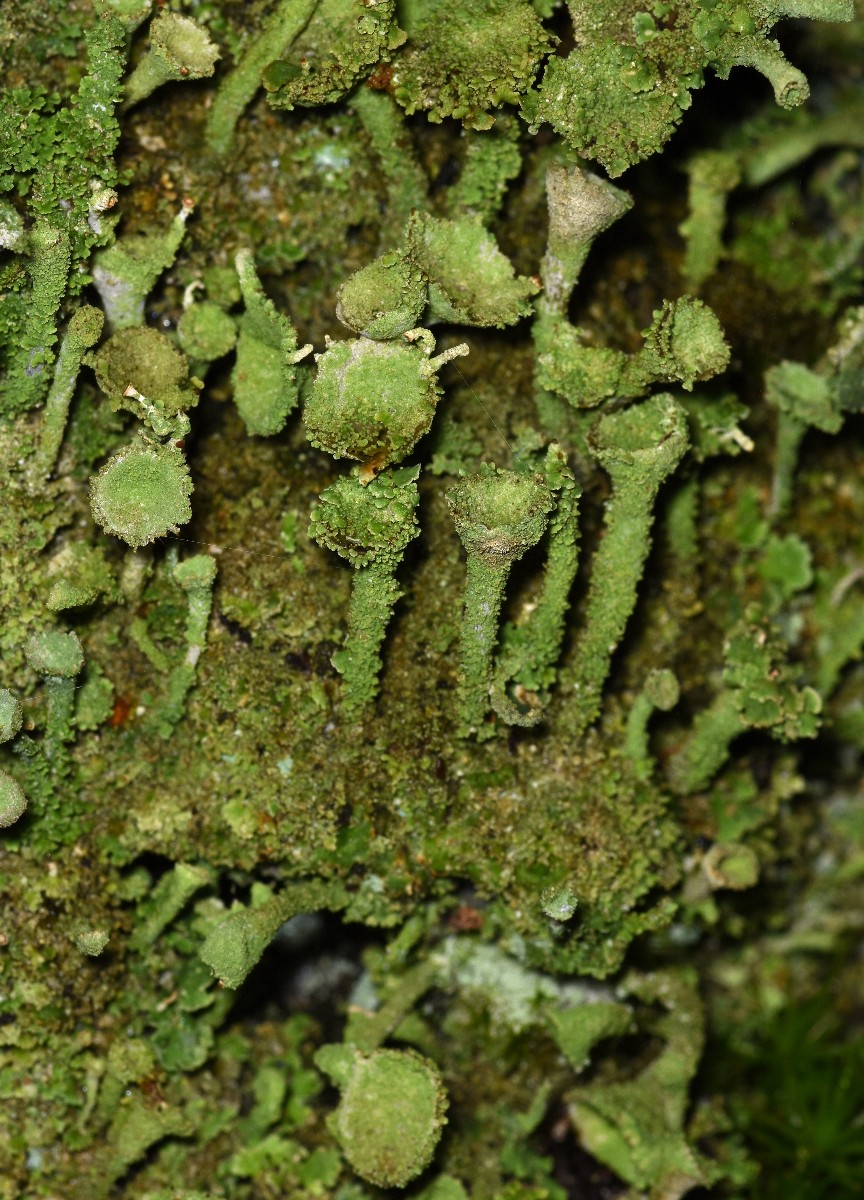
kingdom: Fungi
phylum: Ascomycota
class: Lecanoromycetes
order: Lecanorales
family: Cladoniaceae
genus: Cladonia
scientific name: Cladonia
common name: brungrøn bægerlav
